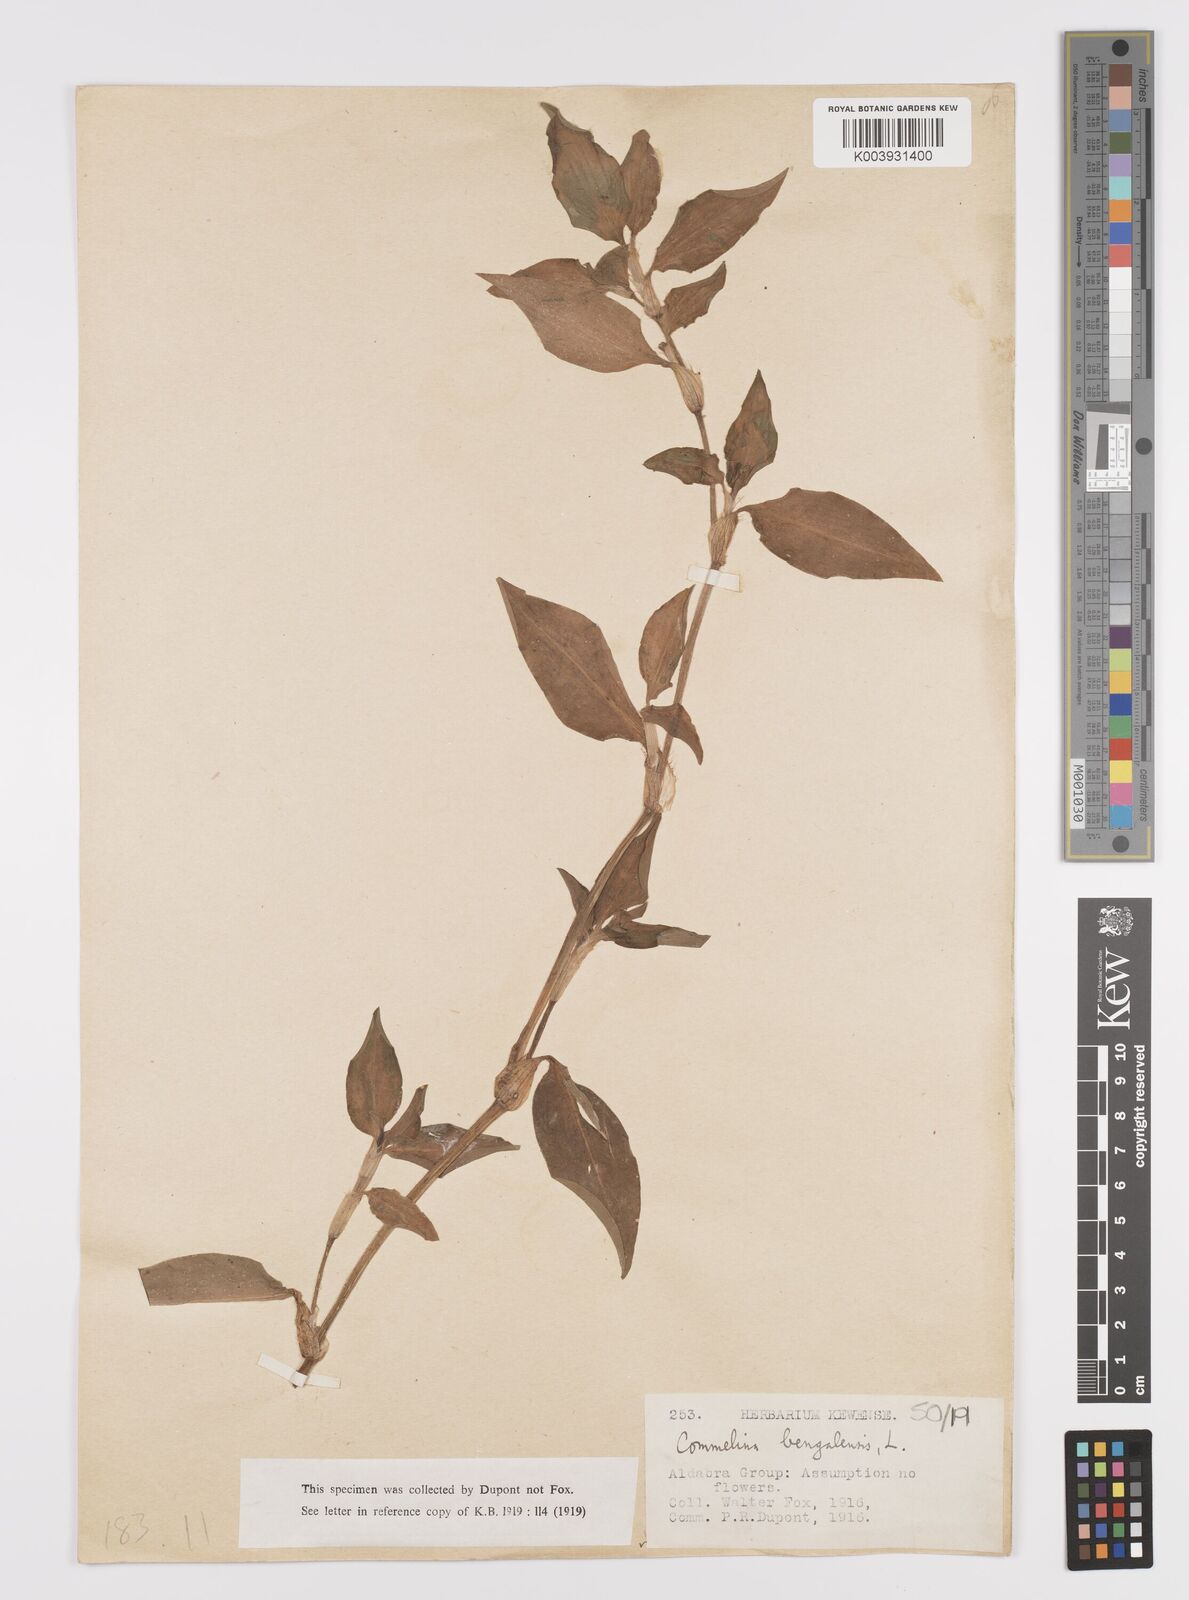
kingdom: Plantae
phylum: Tracheophyta
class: Liliopsida
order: Commelinales
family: Commelinaceae
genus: Commelina
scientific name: Commelina benghalensis
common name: Jio
